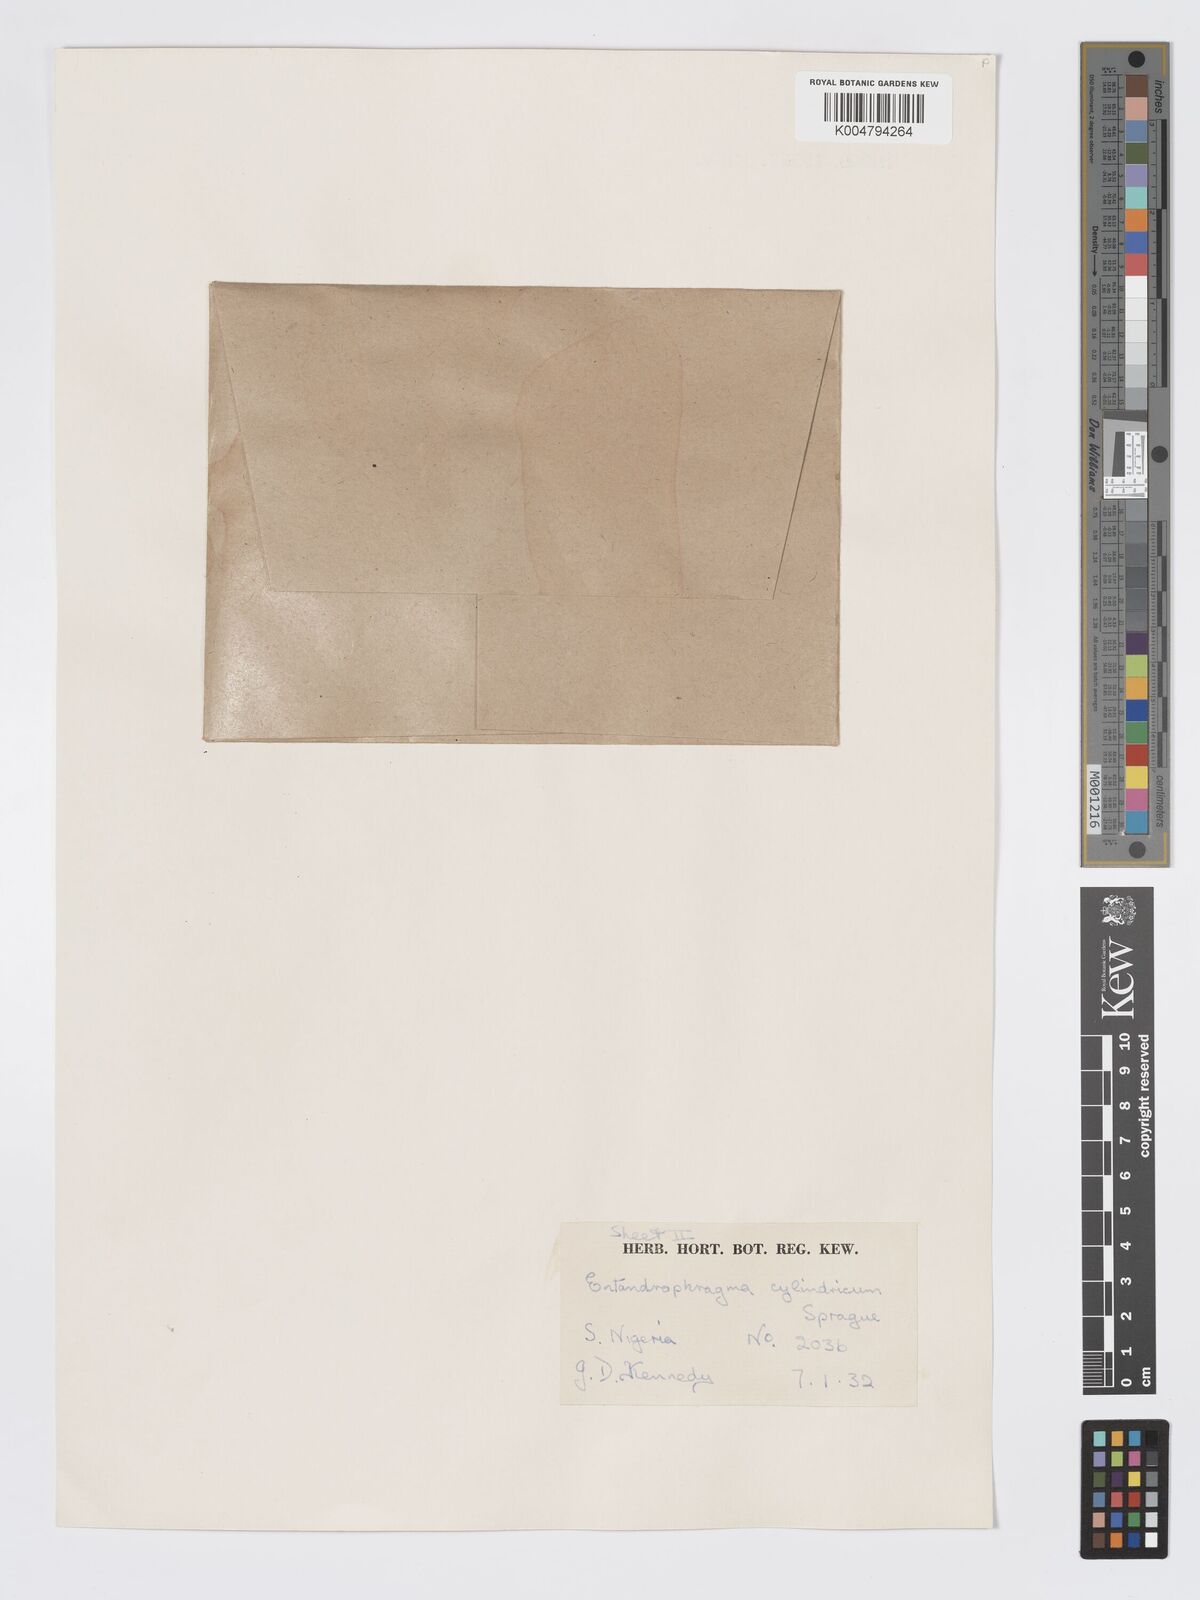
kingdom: Plantae
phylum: Tracheophyta
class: Magnoliopsida
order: Sapindales
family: Meliaceae
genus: Entandrophragma
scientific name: Entandrophragma cylindricum
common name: Sapele
